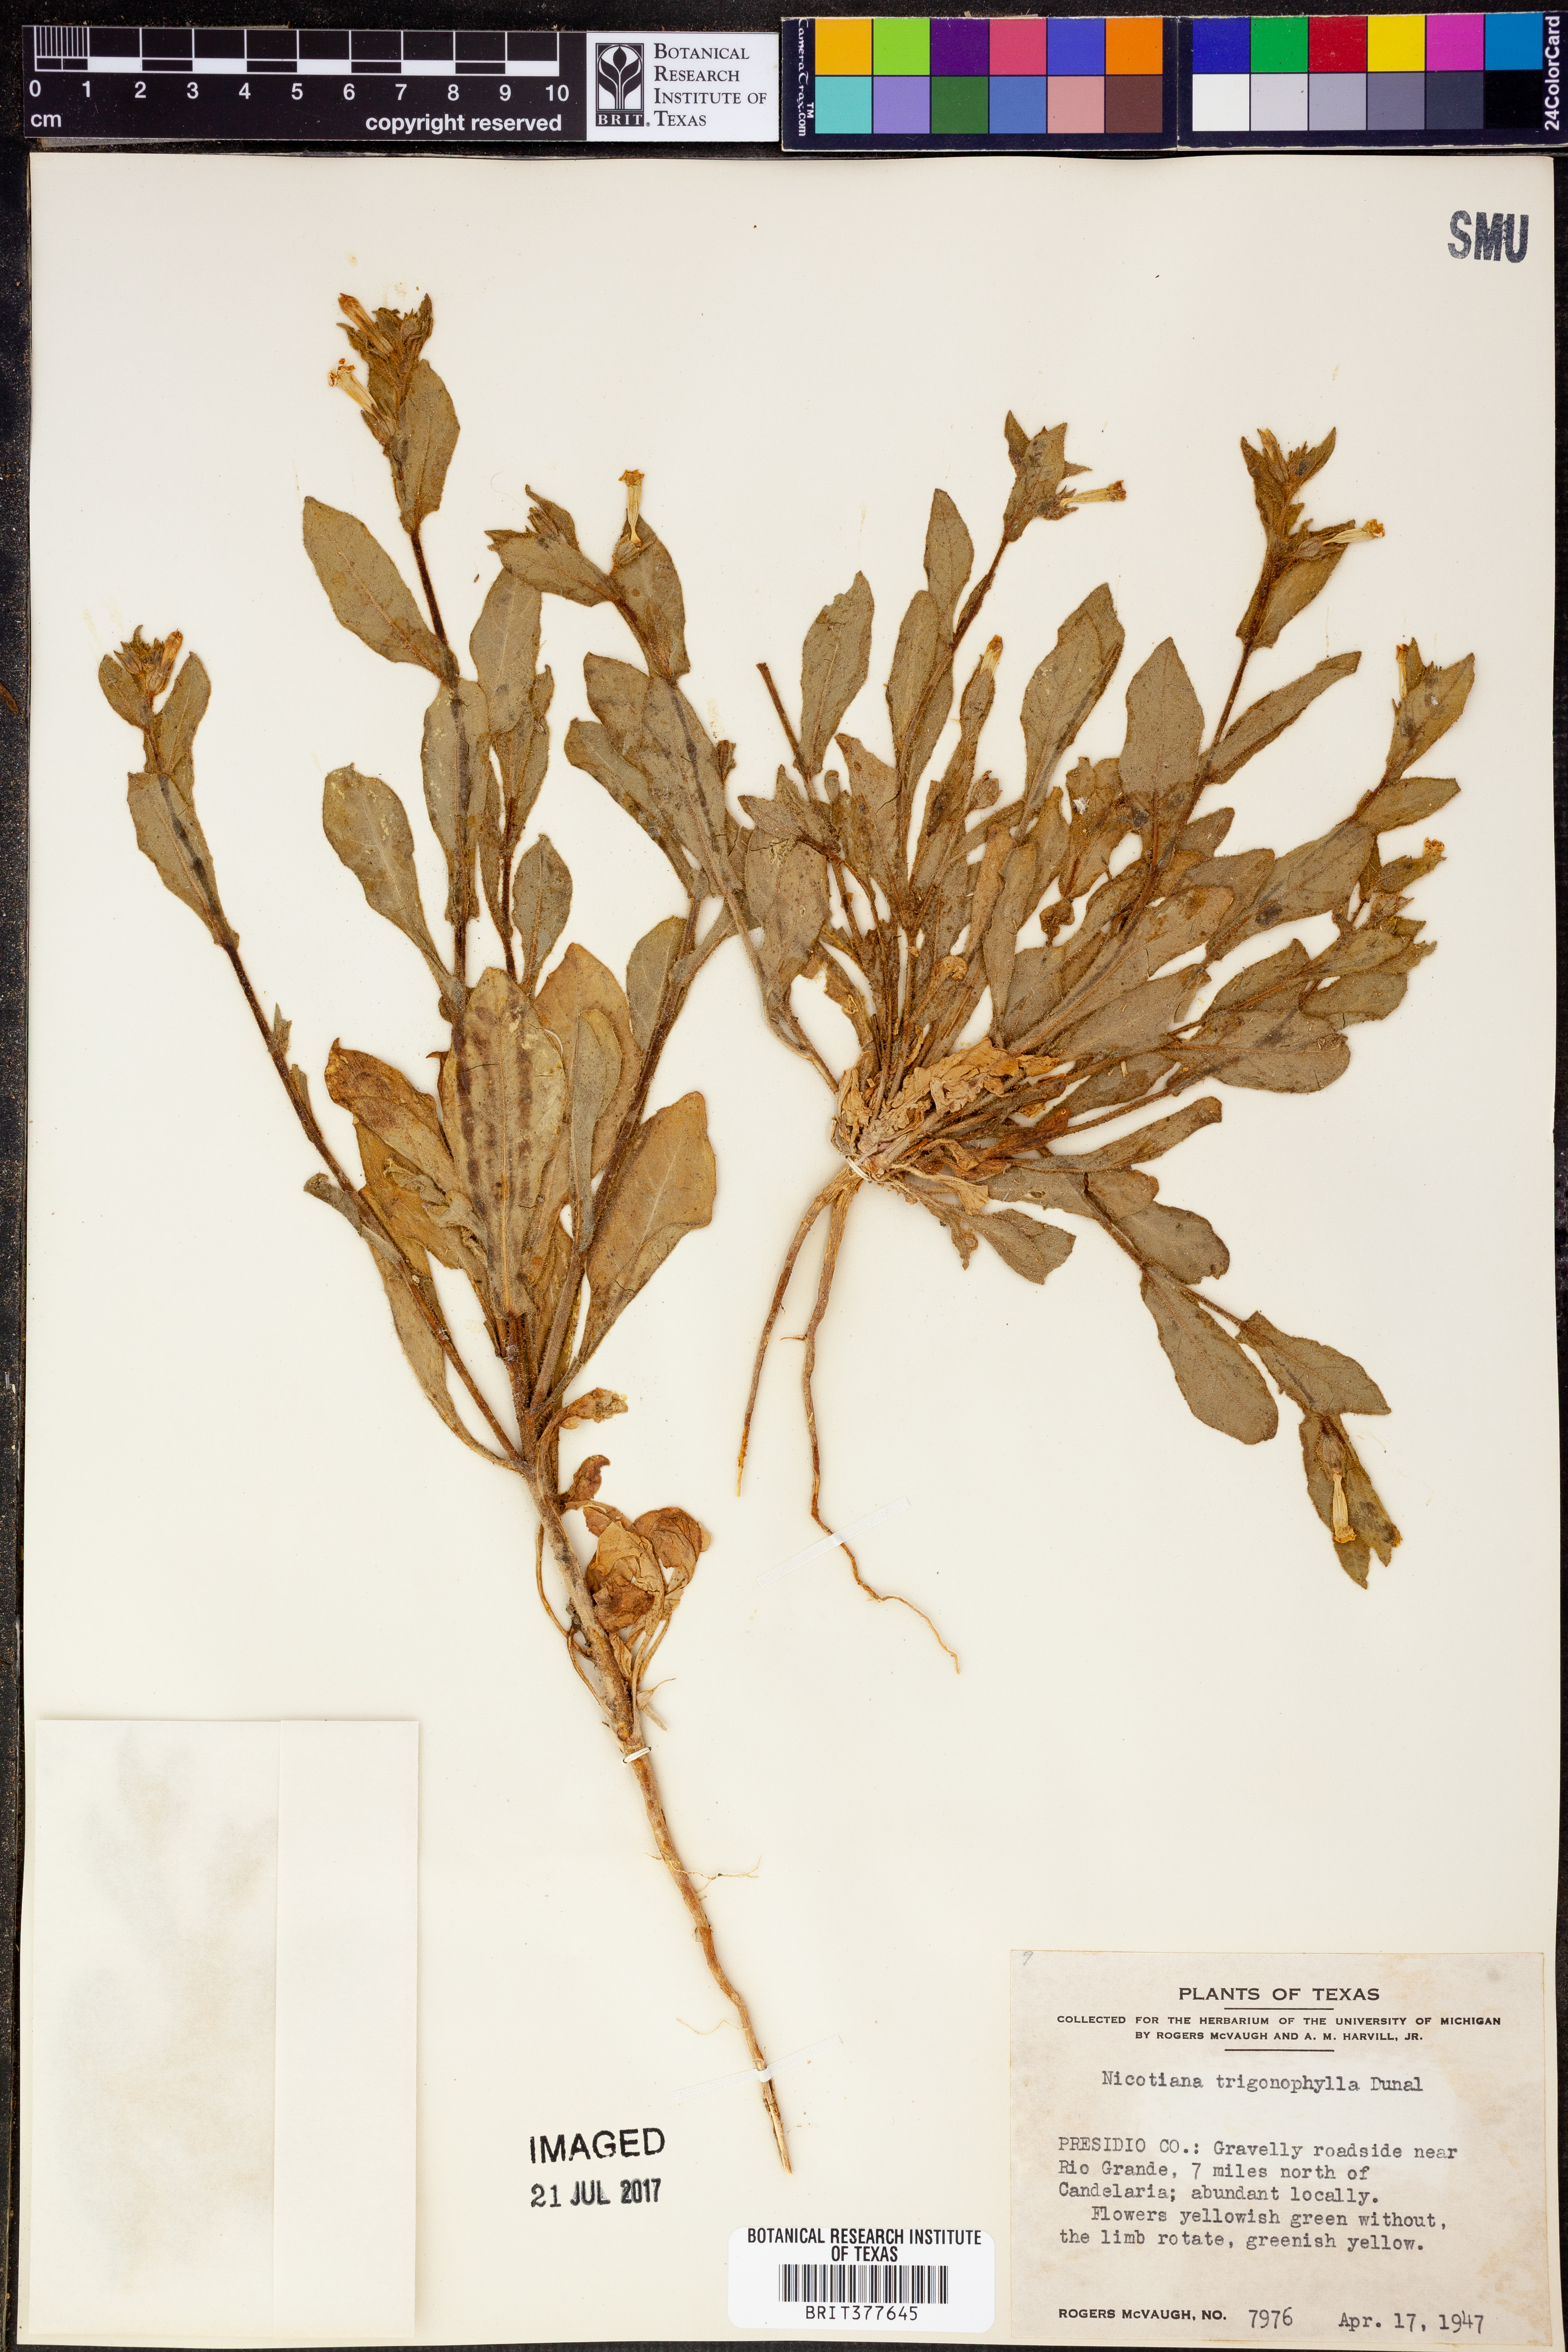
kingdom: Plantae
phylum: Tracheophyta
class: Magnoliopsida
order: Solanales
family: Solanaceae
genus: Nicotiana
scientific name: Nicotiana obtusifolia
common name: Desert tobacco
